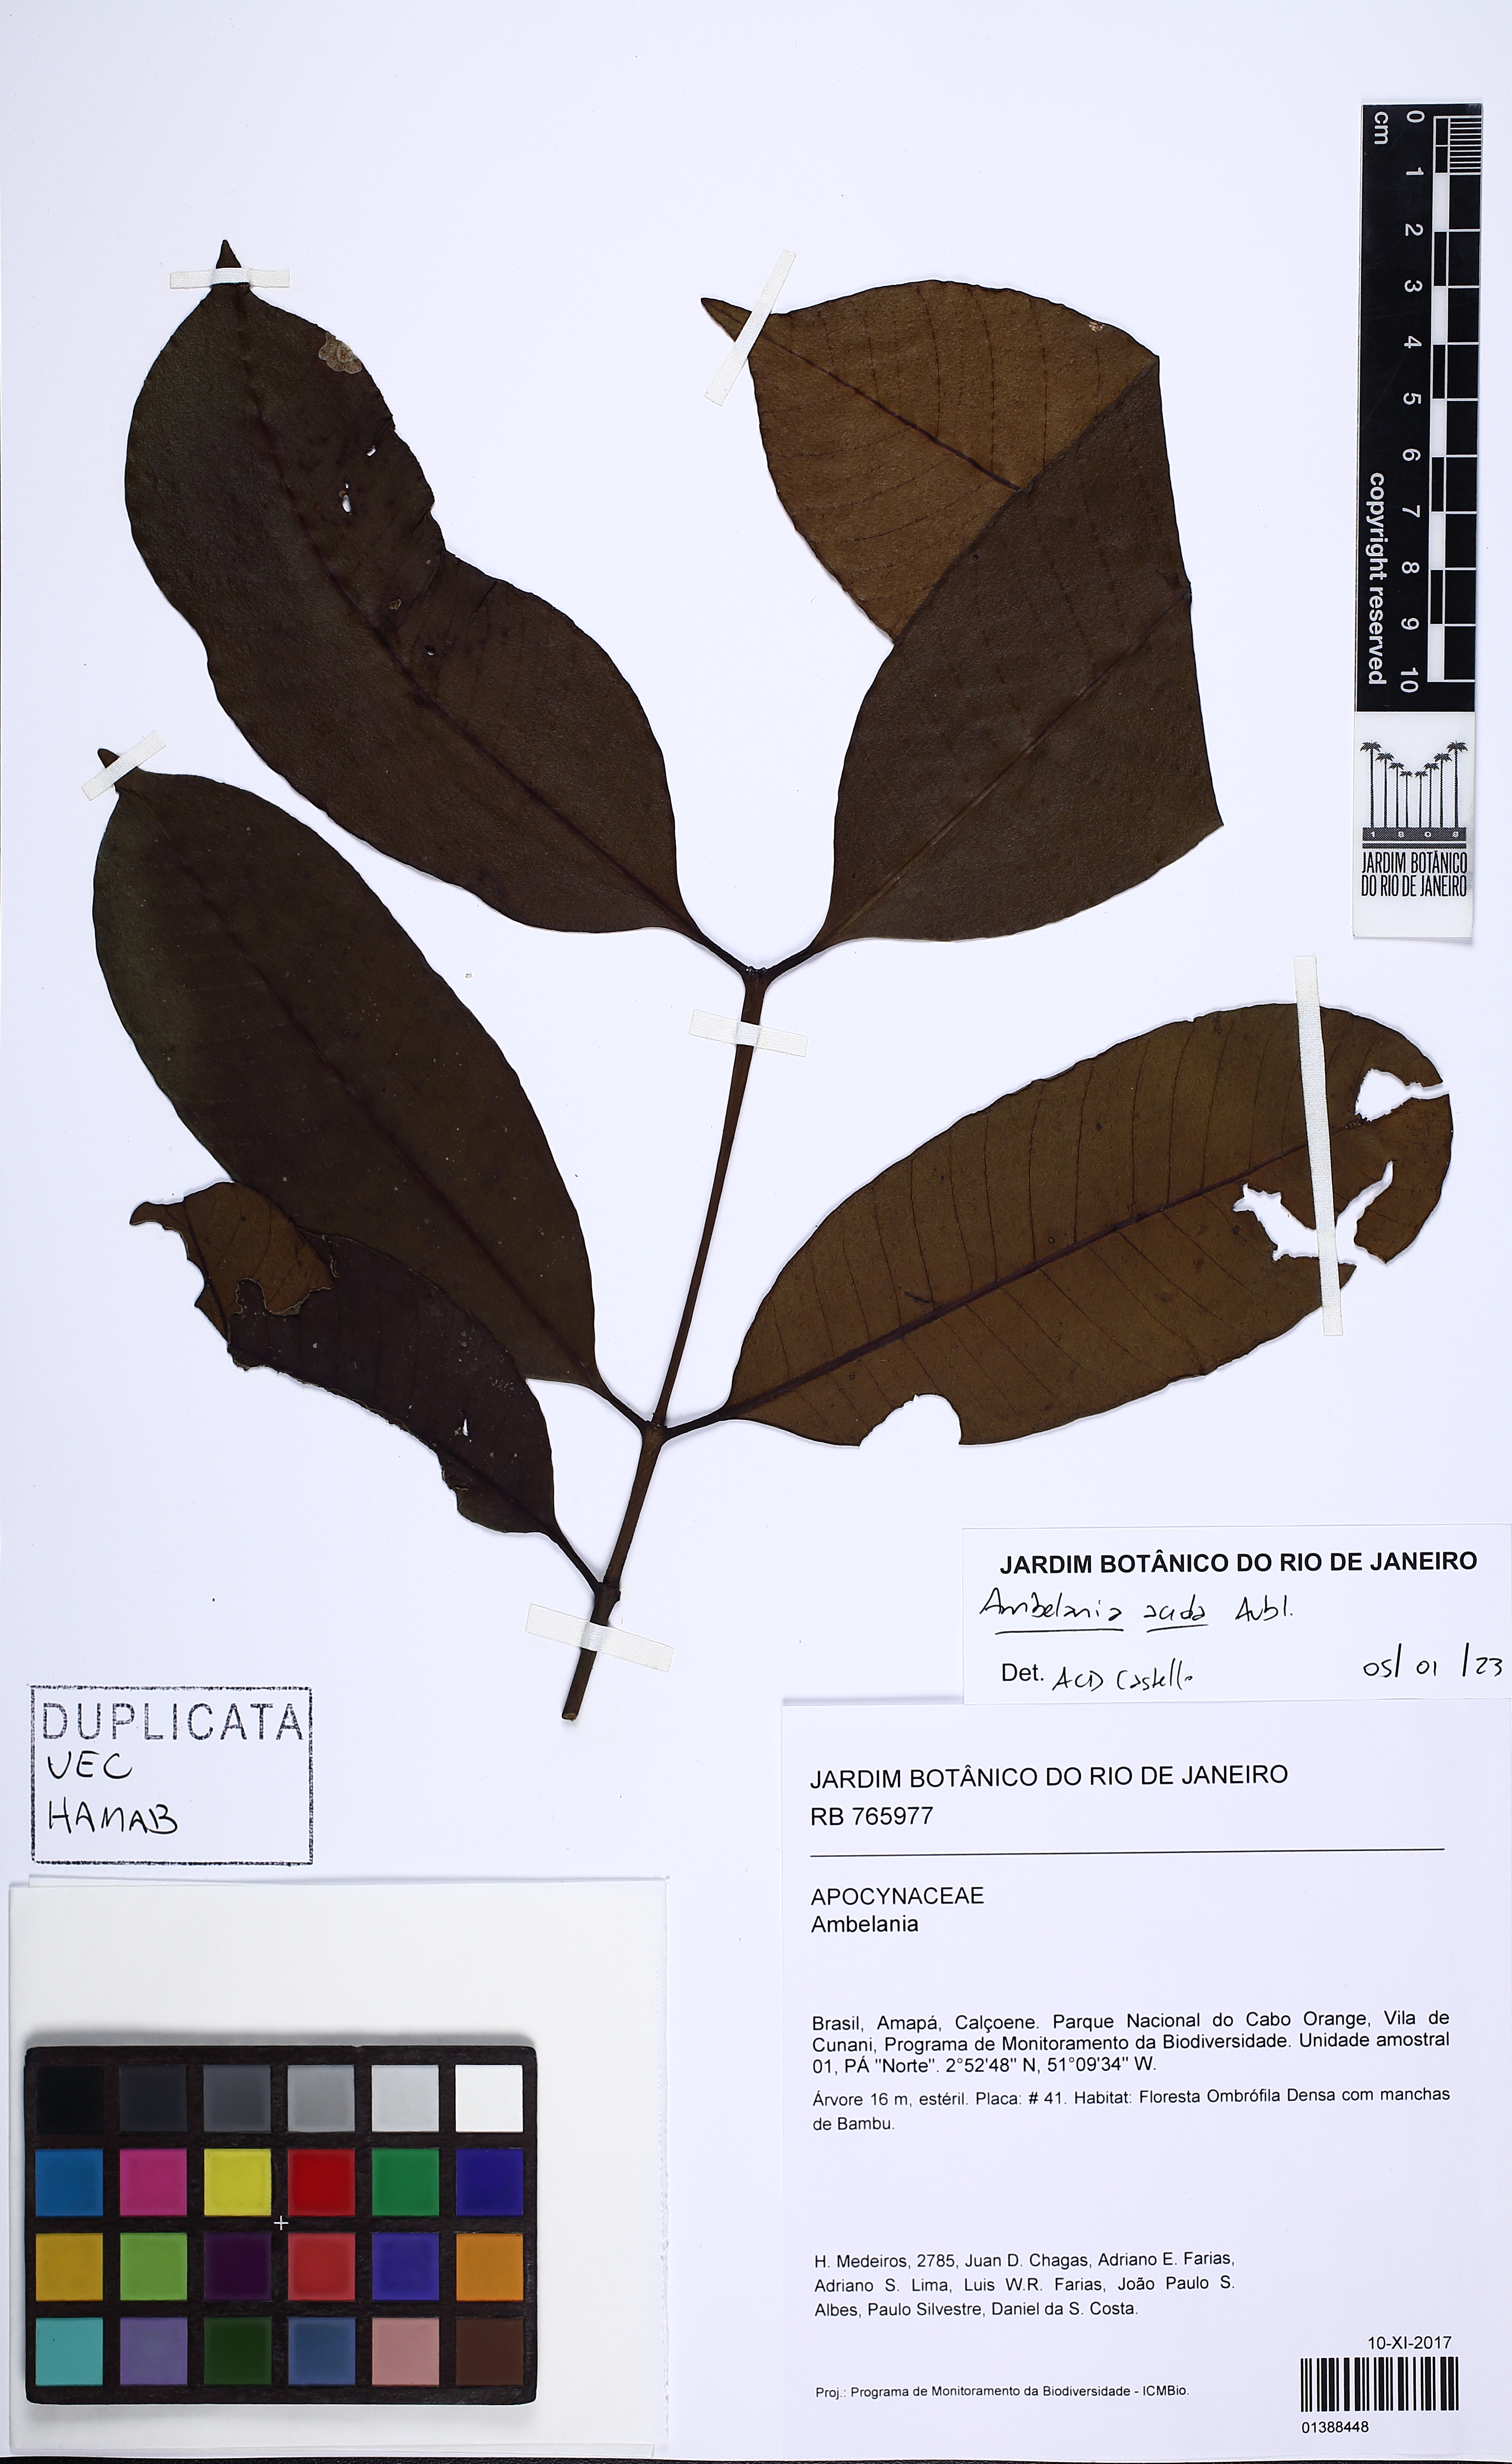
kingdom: Plantae
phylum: Tracheophyta
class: Magnoliopsida
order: Gentianales
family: Apocynaceae
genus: Ambelania
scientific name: Ambelania acida
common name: Bagasse
